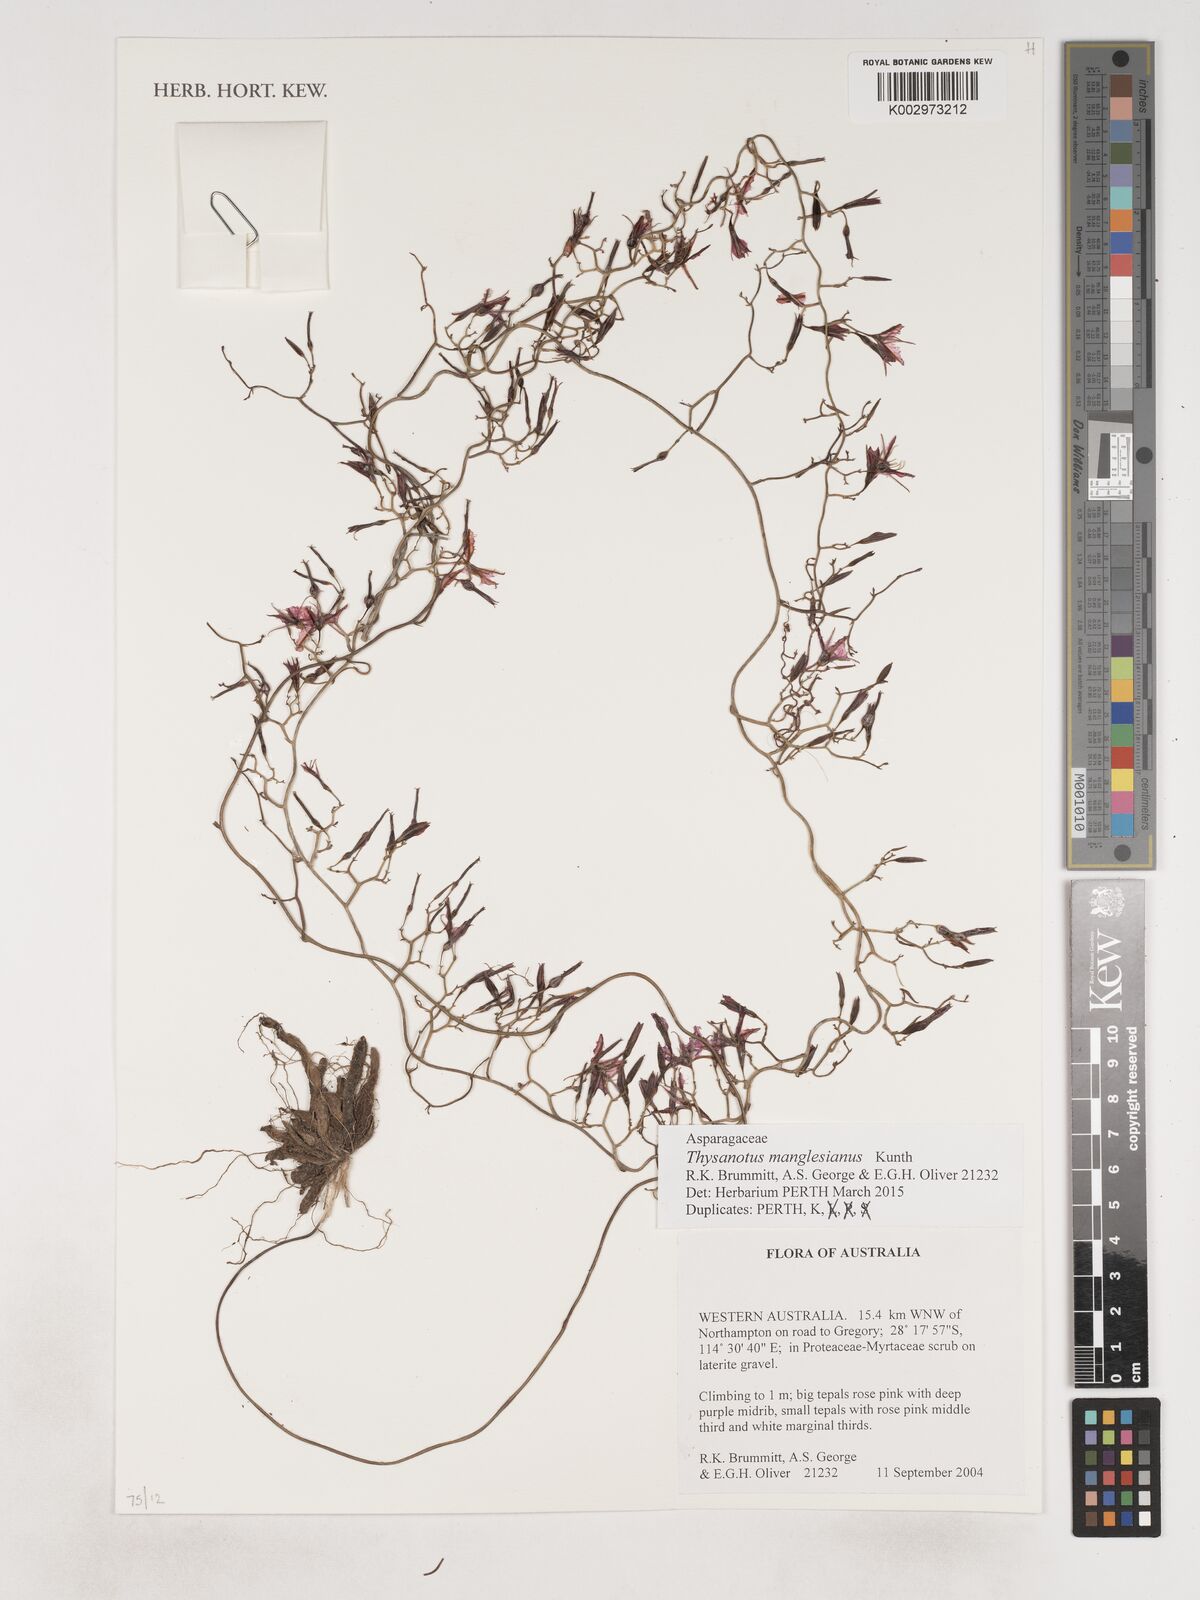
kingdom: Plantae
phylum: Tracheophyta
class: Liliopsida
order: Asparagales
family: Asparagaceae
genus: Thysanotus
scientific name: Thysanotus manglesianus
